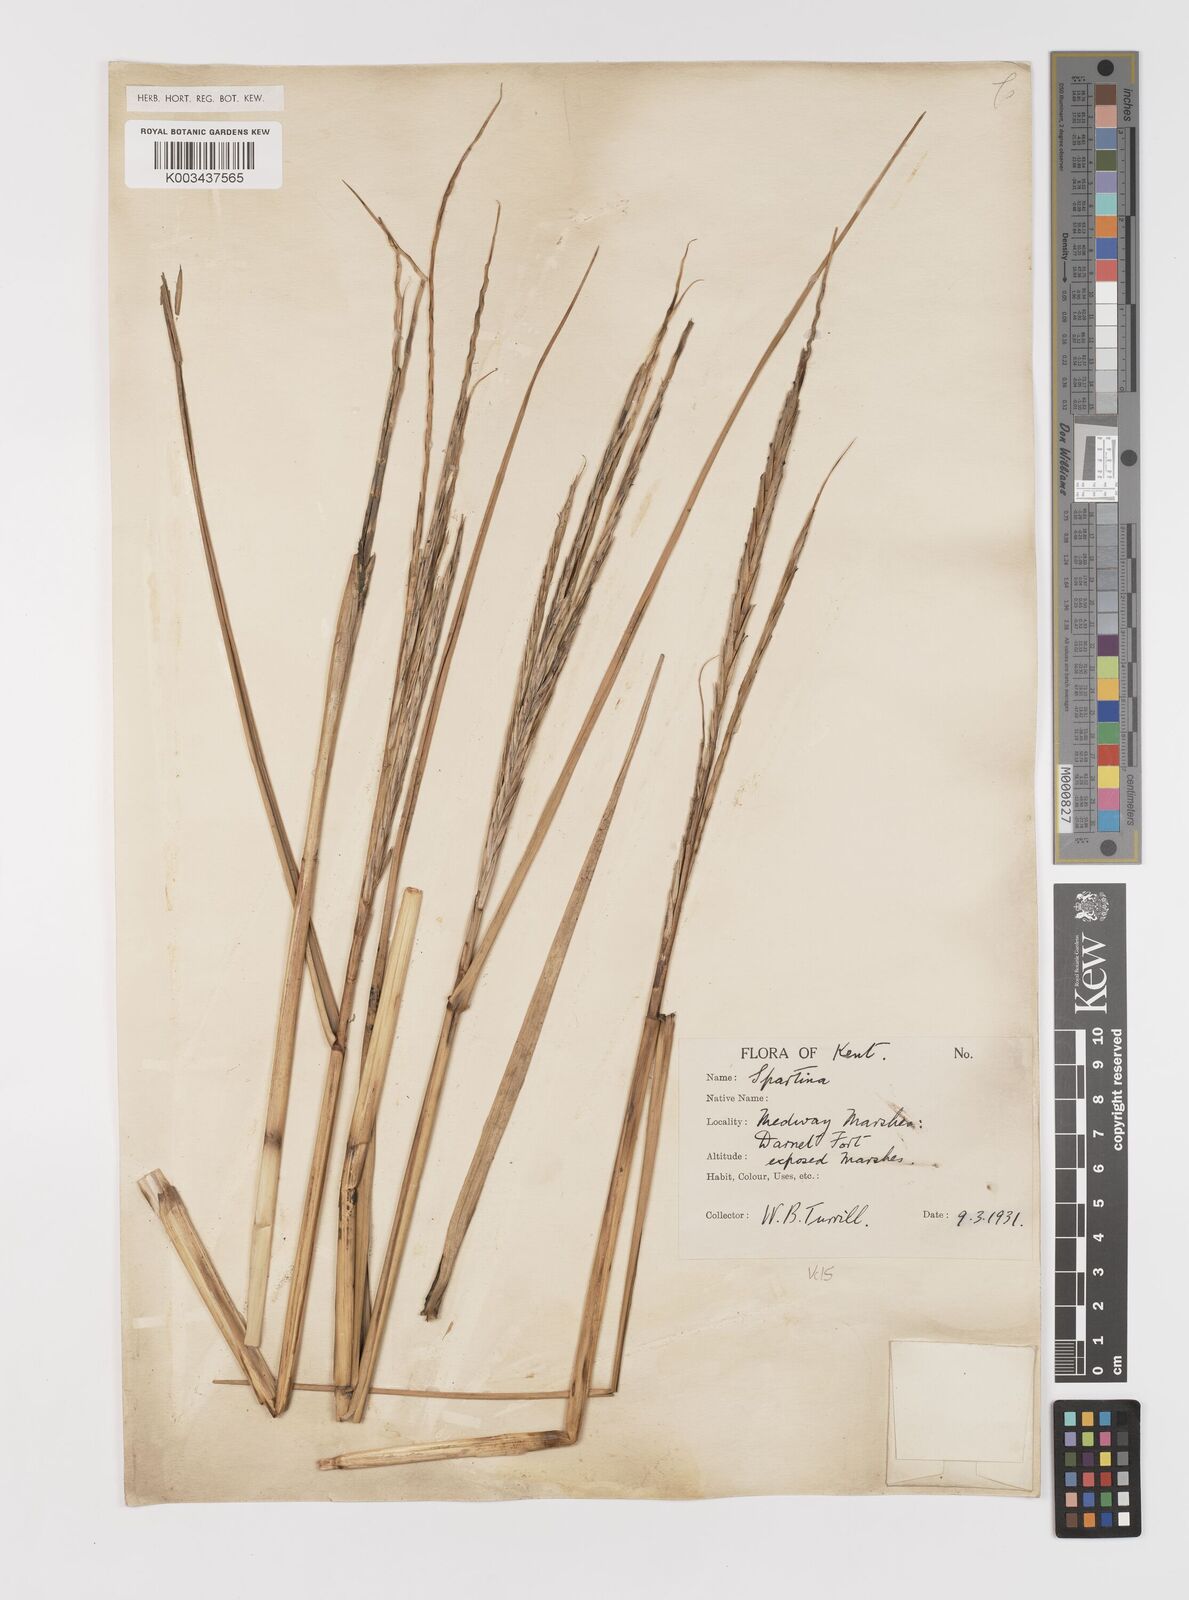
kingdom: Plantae
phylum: Tracheophyta
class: Liliopsida
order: Poales
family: Poaceae
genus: Sporobolus
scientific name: Sporobolus anglicus
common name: English cordgrass
